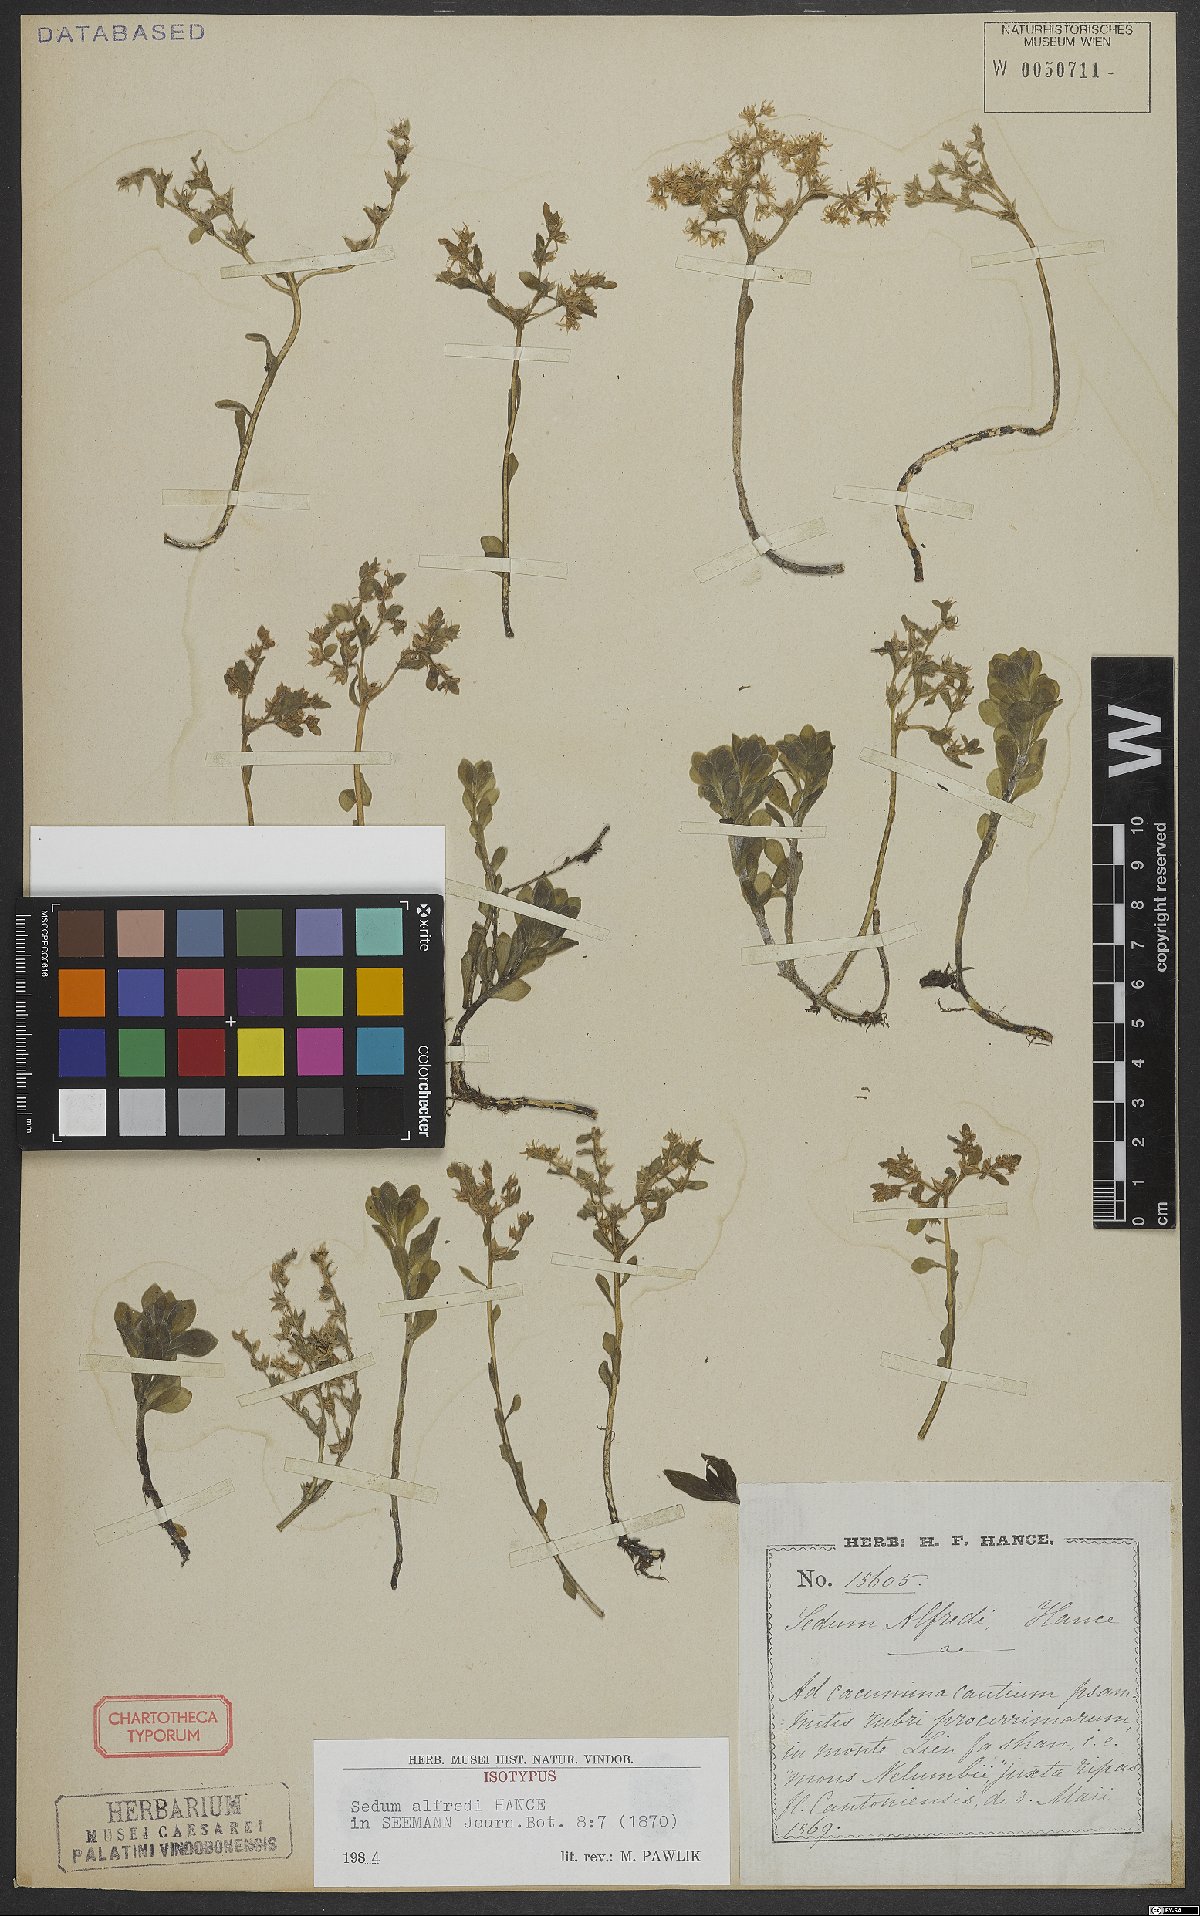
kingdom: Plantae
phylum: Tracheophyta
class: Magnoliopsida
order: Saxifragales
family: Crassulaceae
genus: Sedum
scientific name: Sedum alfredi
